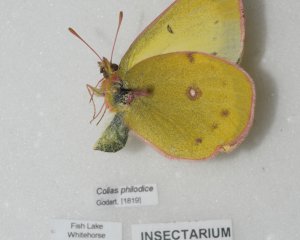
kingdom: Animalia
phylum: Arthropoda
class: Insecta
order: Lepidoptera
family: Pieridae
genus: Colias
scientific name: Colias philodice
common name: Clouded Sulphur
